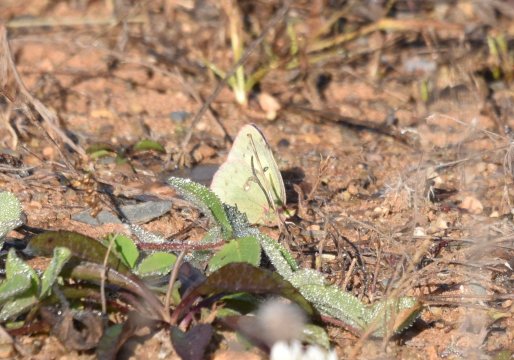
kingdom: Animalia
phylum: Arthropoda
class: Insecta
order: Lepidoptera
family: Pieridae
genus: Colias
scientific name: Colias philodice
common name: Clouded Sulphur
